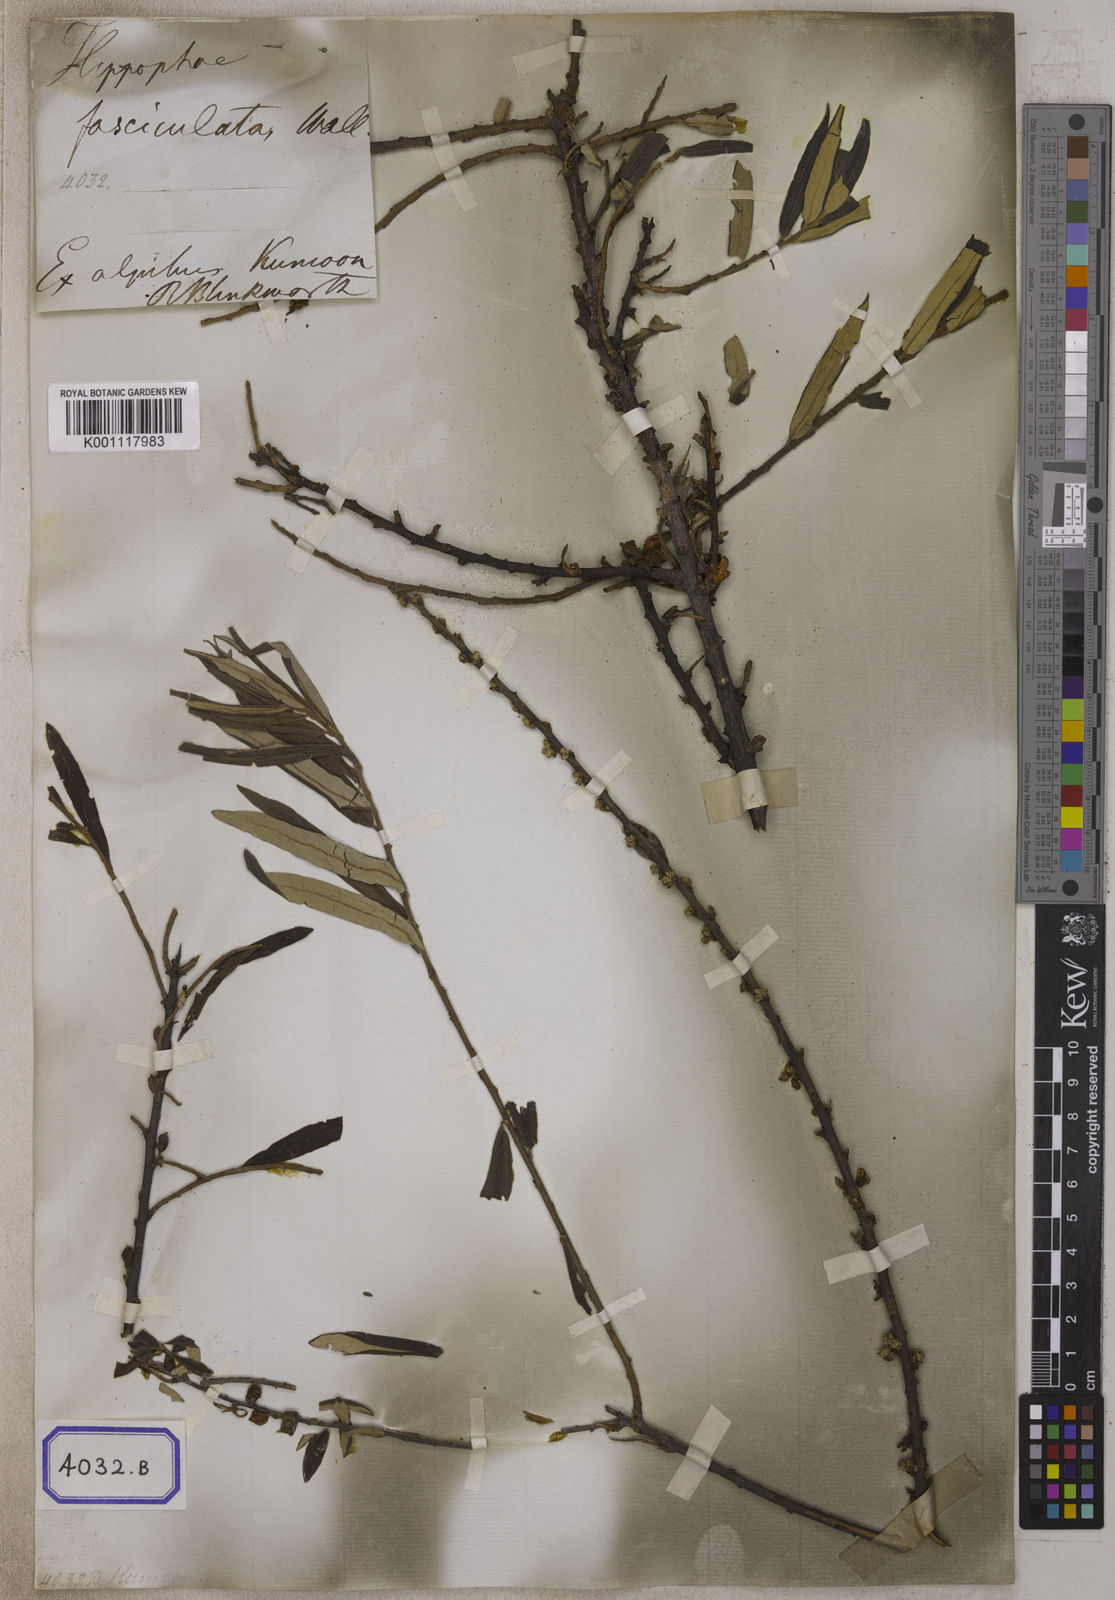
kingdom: Plantae
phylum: Tracheophyta
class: Magnoliopsida
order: Rosales
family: Elaeagnaceae
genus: Hippophae
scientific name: Hippophae salicifolia
